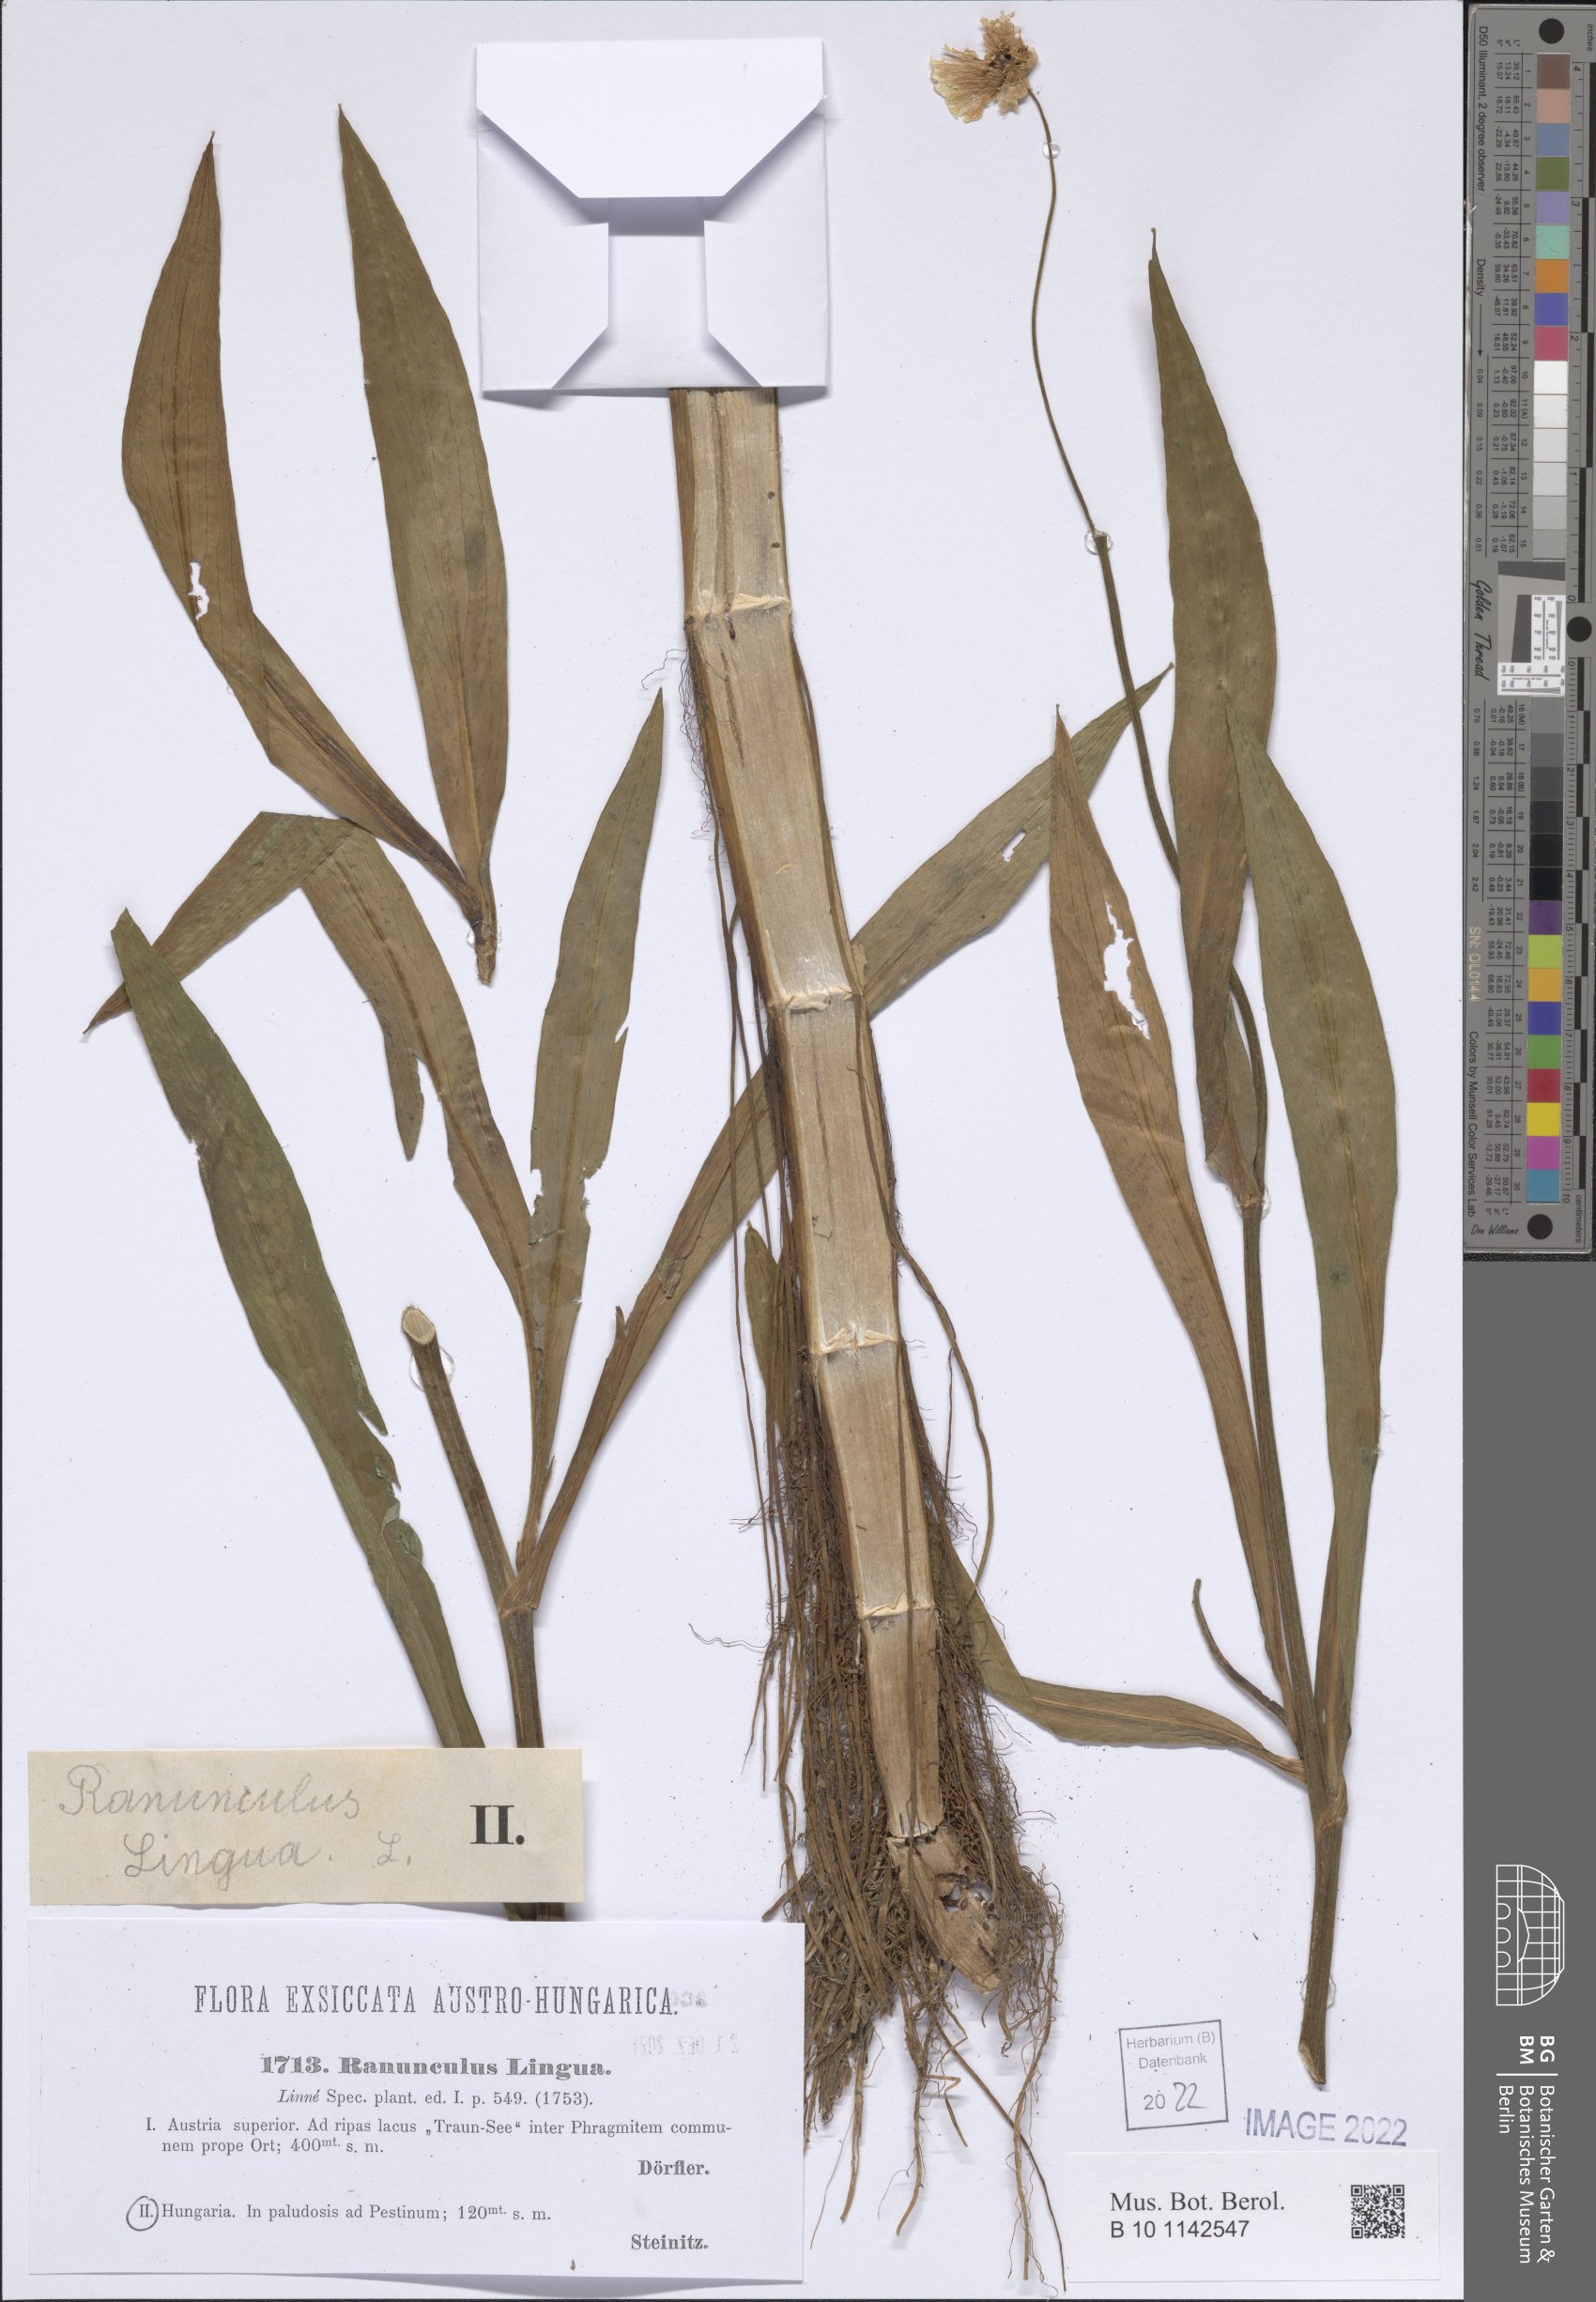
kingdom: Plantae
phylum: Tracheophyta
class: Magnoliopsida
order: Ranunculales
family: Ranunculaceae
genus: Ranunculus
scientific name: Ranunculus lingua
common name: Greater spearwort
